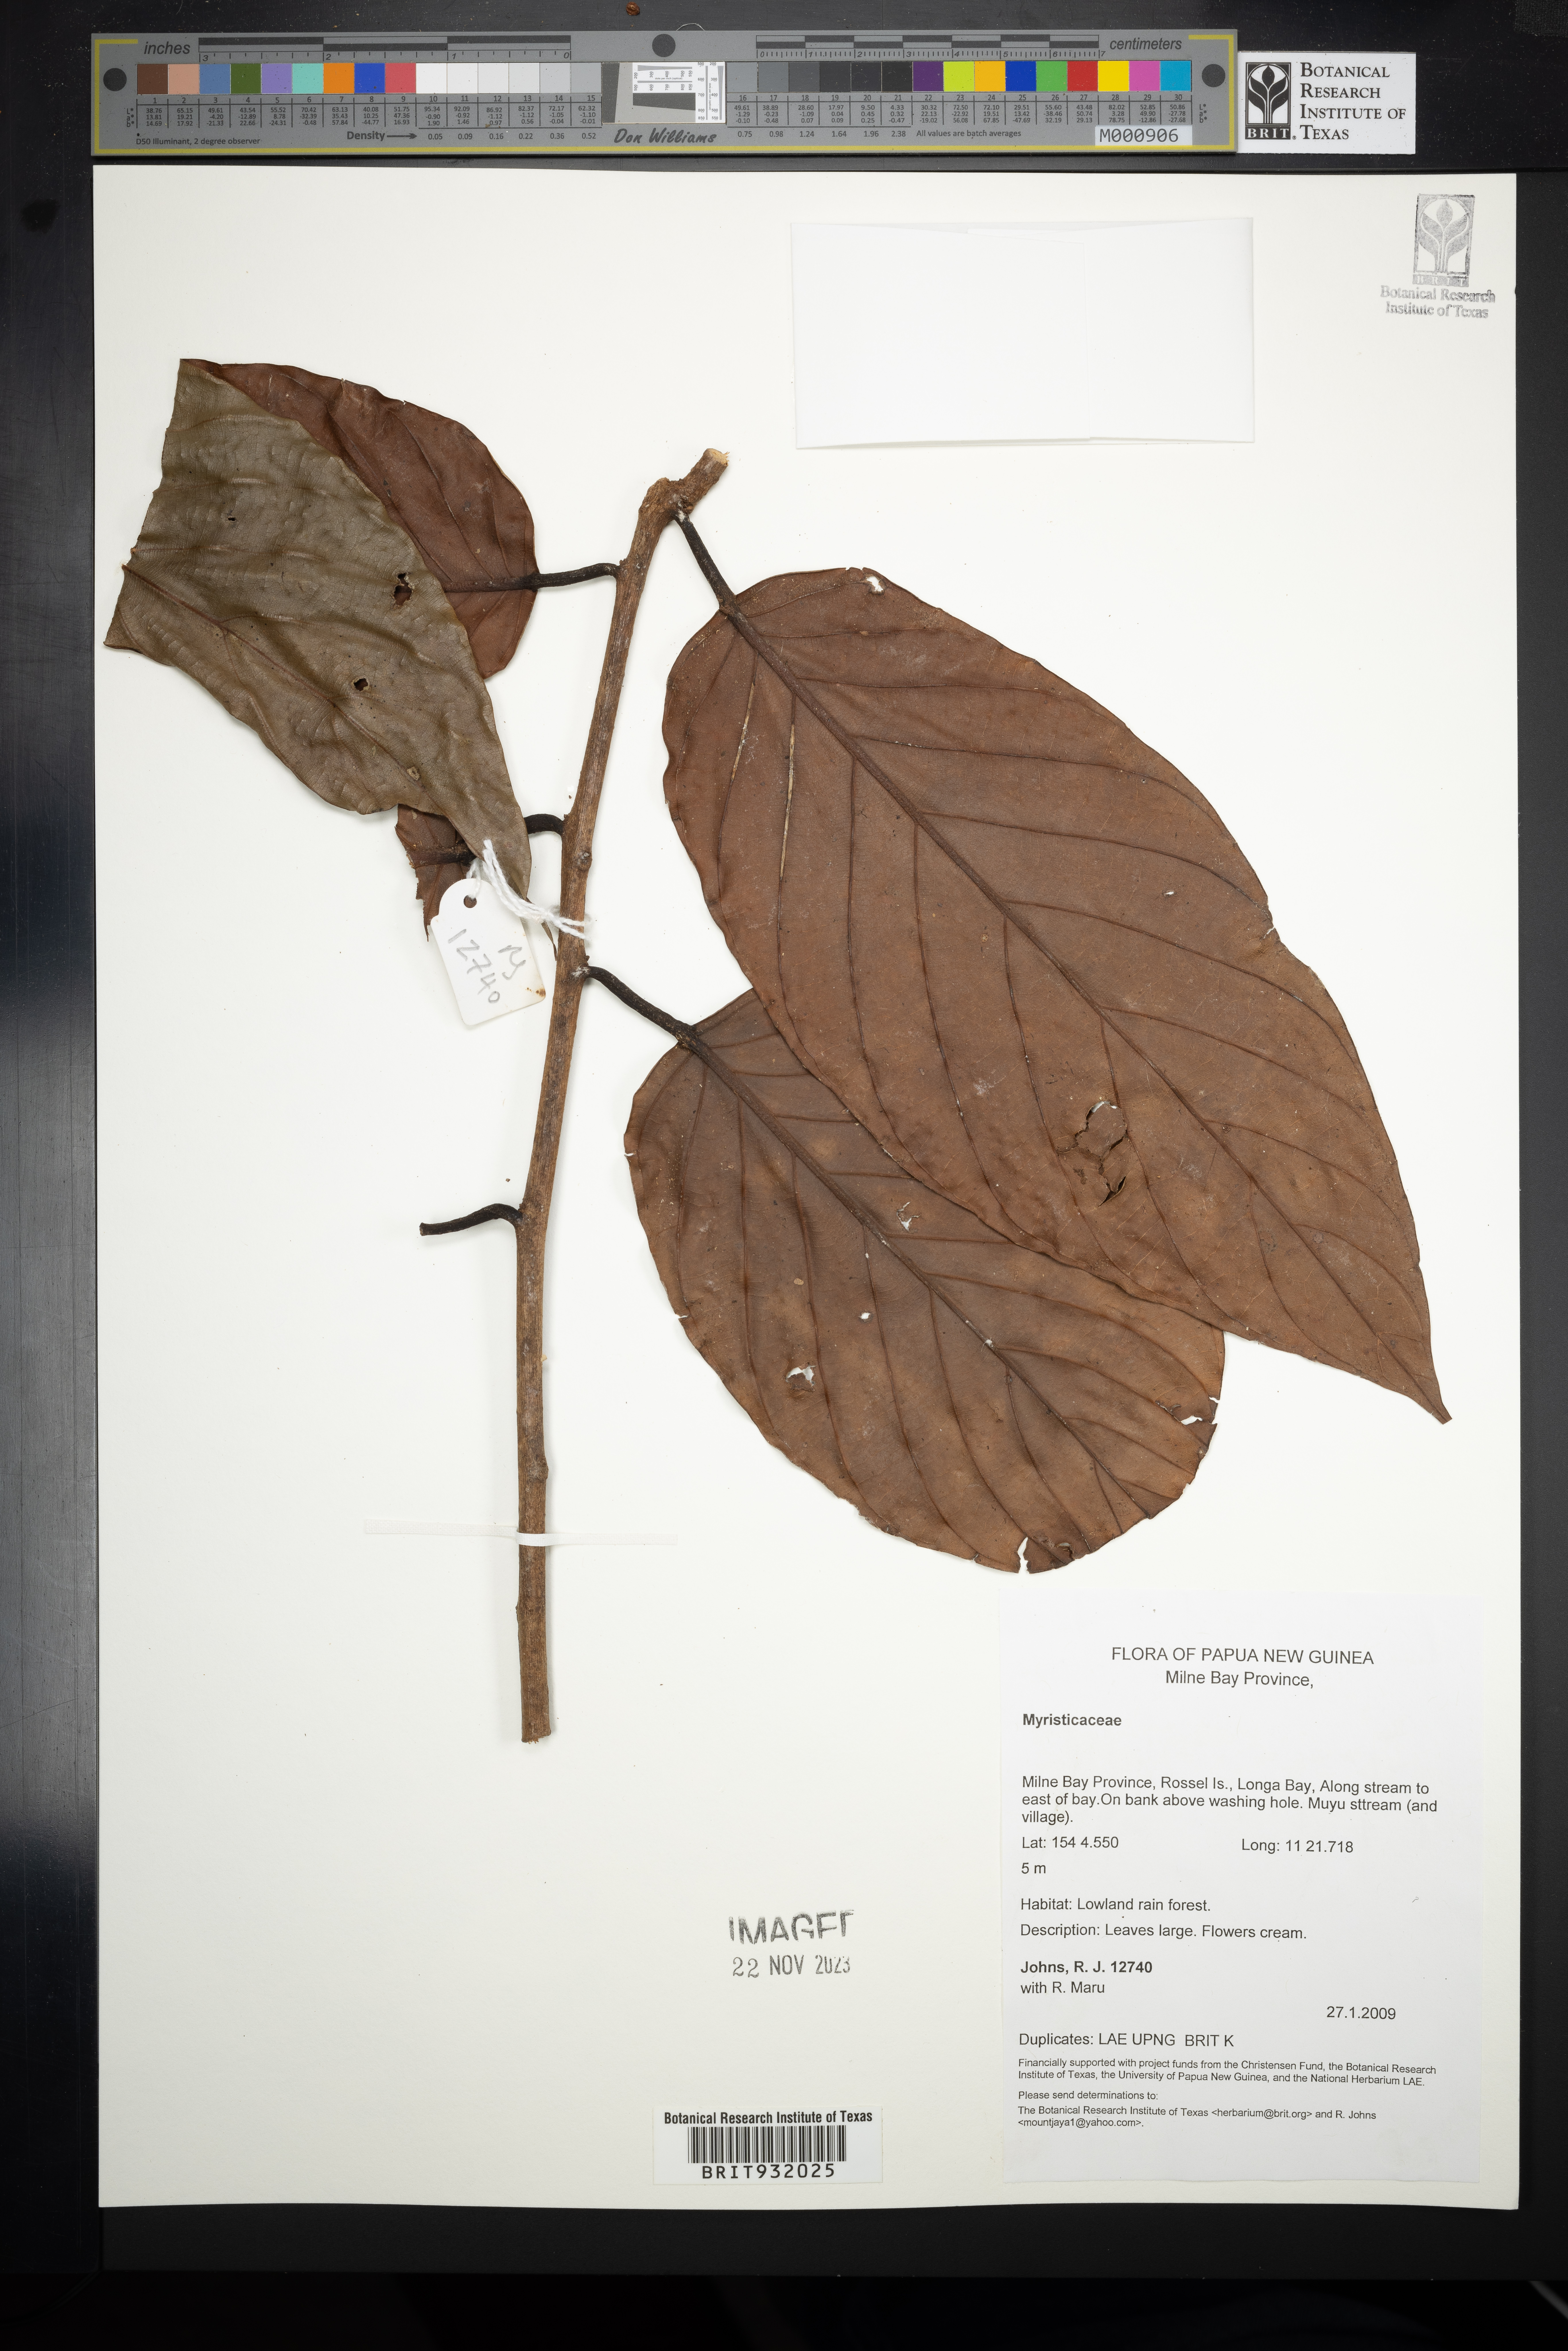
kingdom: Plantae
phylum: Tracheophyta
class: Magnoliopsida
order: Magnoliales
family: Myristicaceae
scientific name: Myristicaceae
